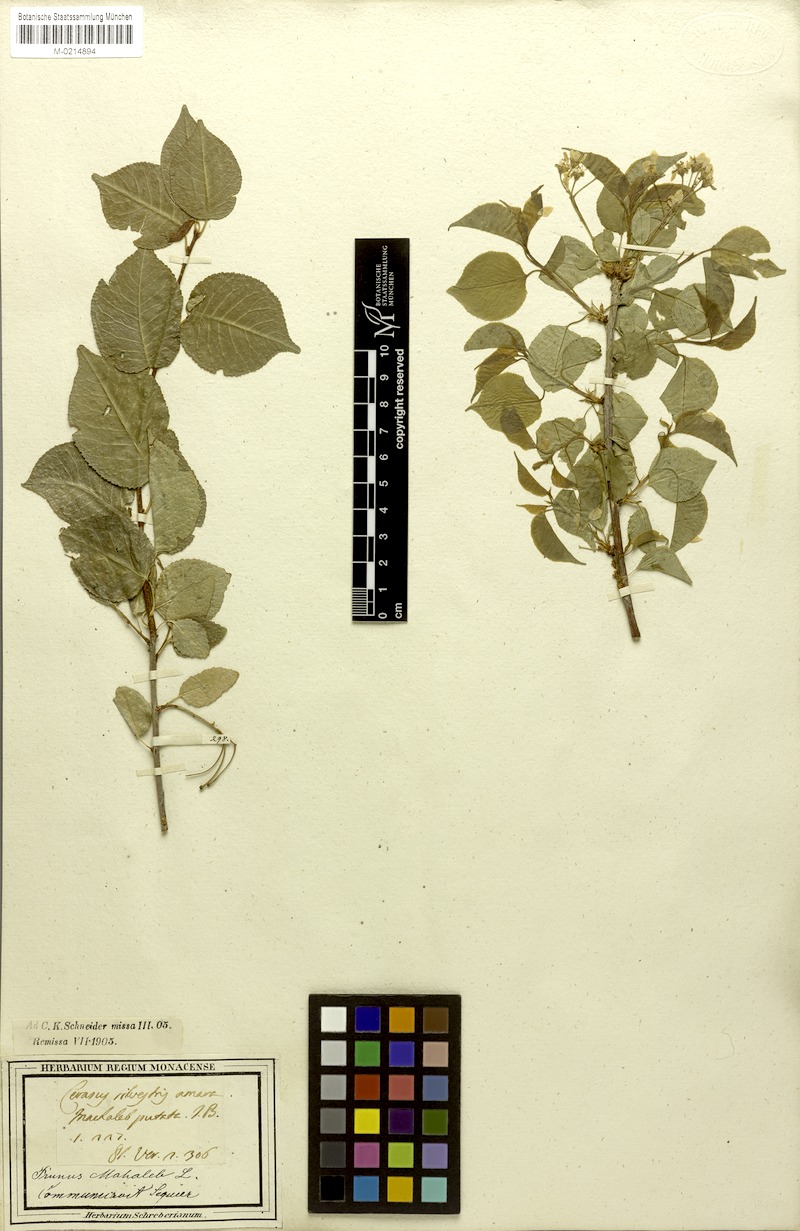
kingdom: Plantae
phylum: Tracheophyta
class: Magnoliopsida
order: Rosales
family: Rosaceae
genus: Prunus
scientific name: Prunus mahaleb
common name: Mahaleb cherry
